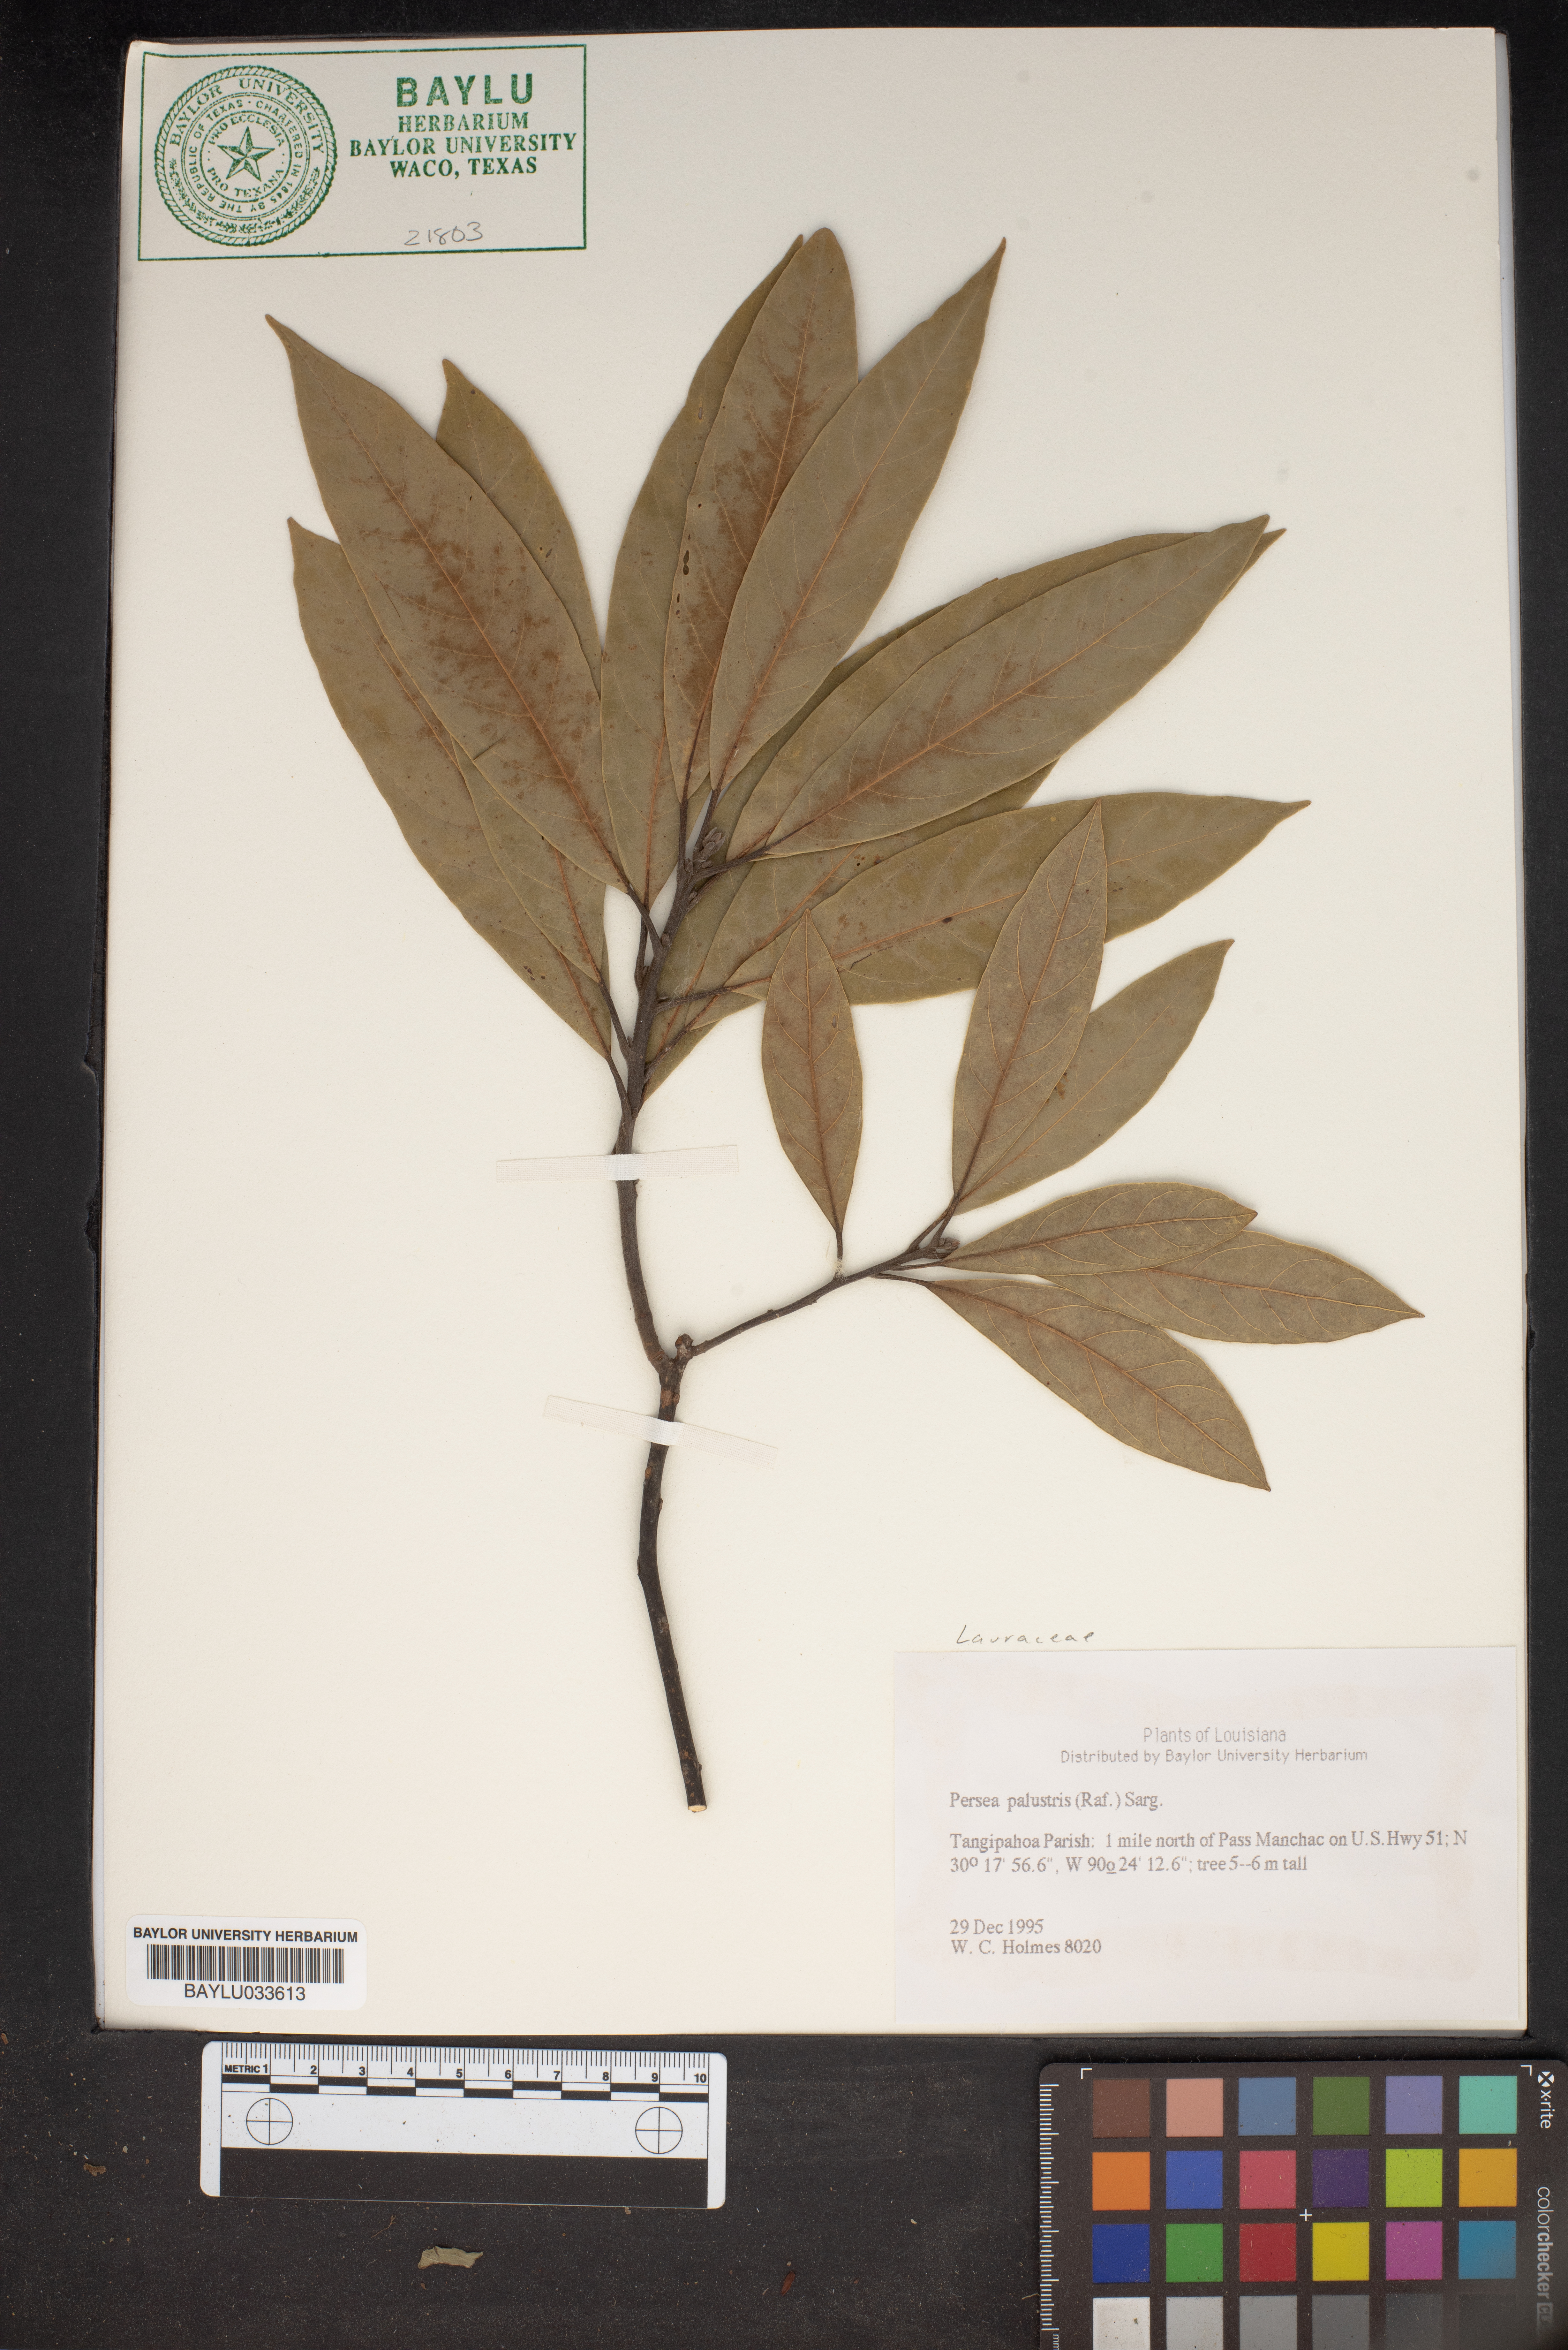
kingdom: Plantae
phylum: Tracheophyta
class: Magnoliopsida
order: Laurales
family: Lauraceae
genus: Persea
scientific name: Persea palustris
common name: Swampbay
